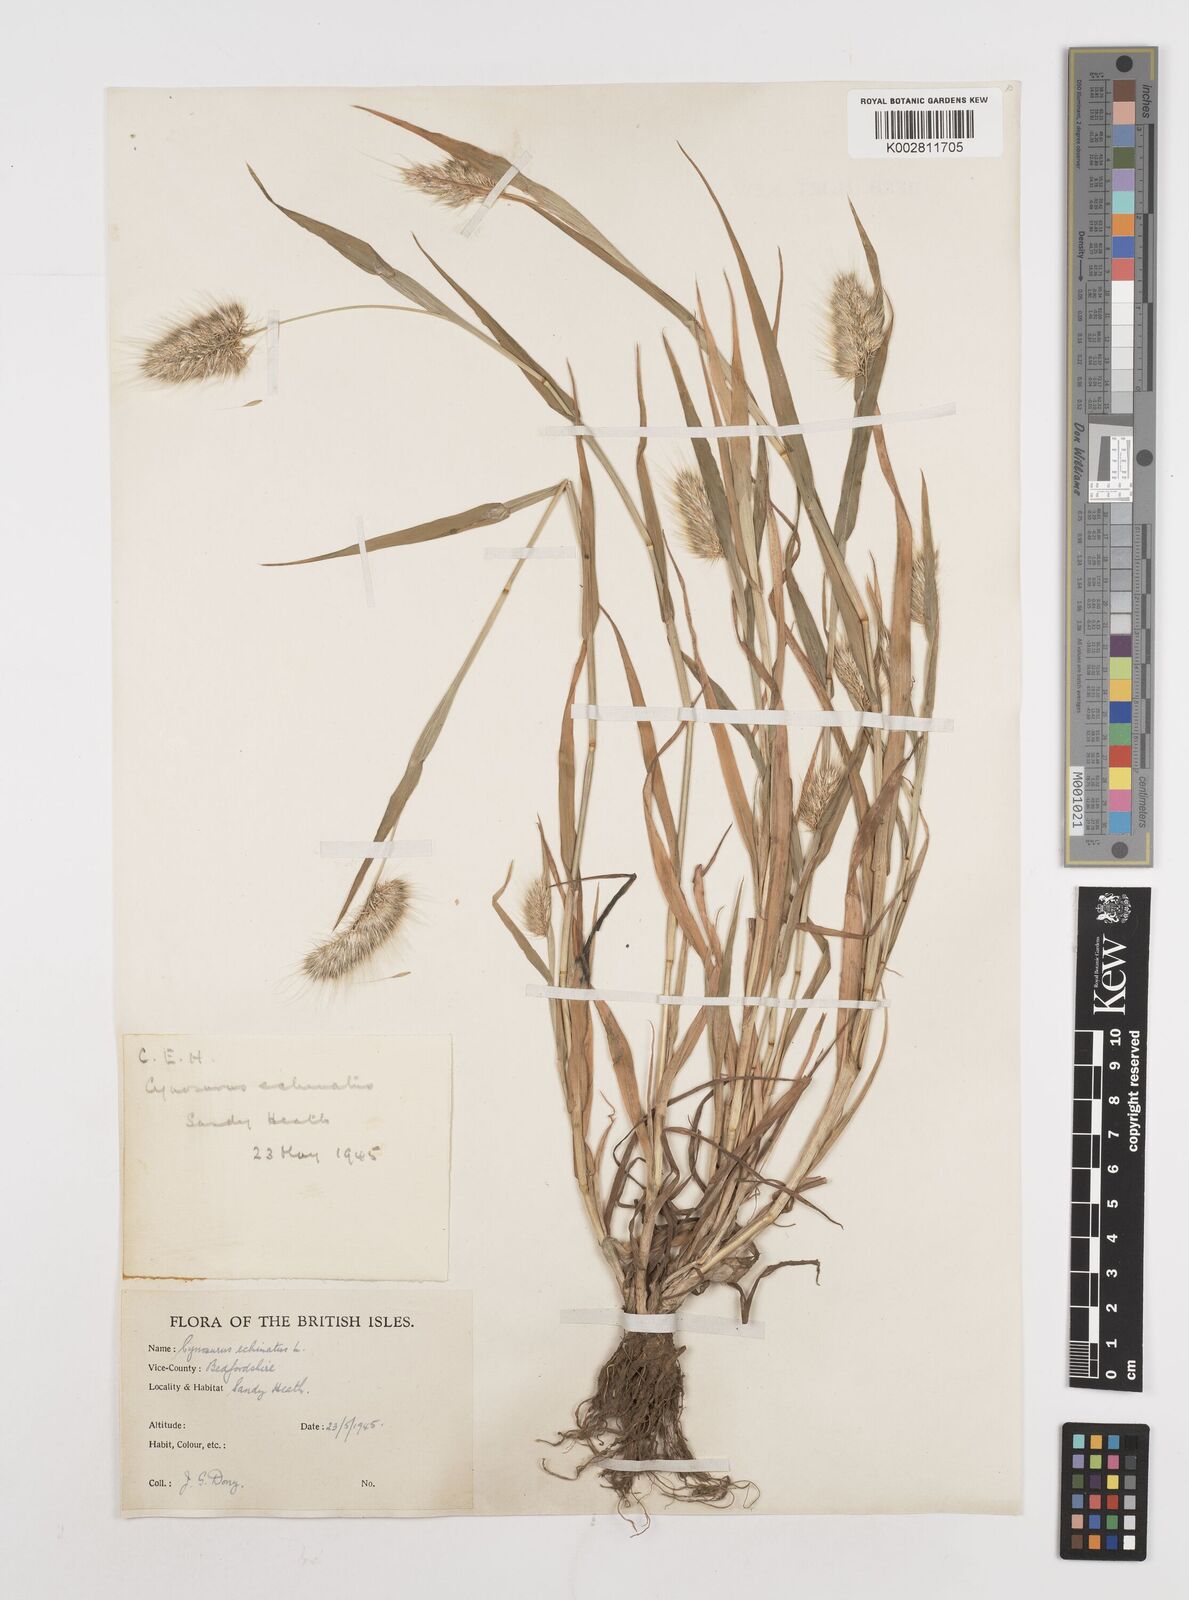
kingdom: Plantae
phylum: Tracheophyta
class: Liliopsida
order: Poales
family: Poaceae
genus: Cynosurus
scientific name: Cynosurus echinatus
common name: Rough dog's-tail
